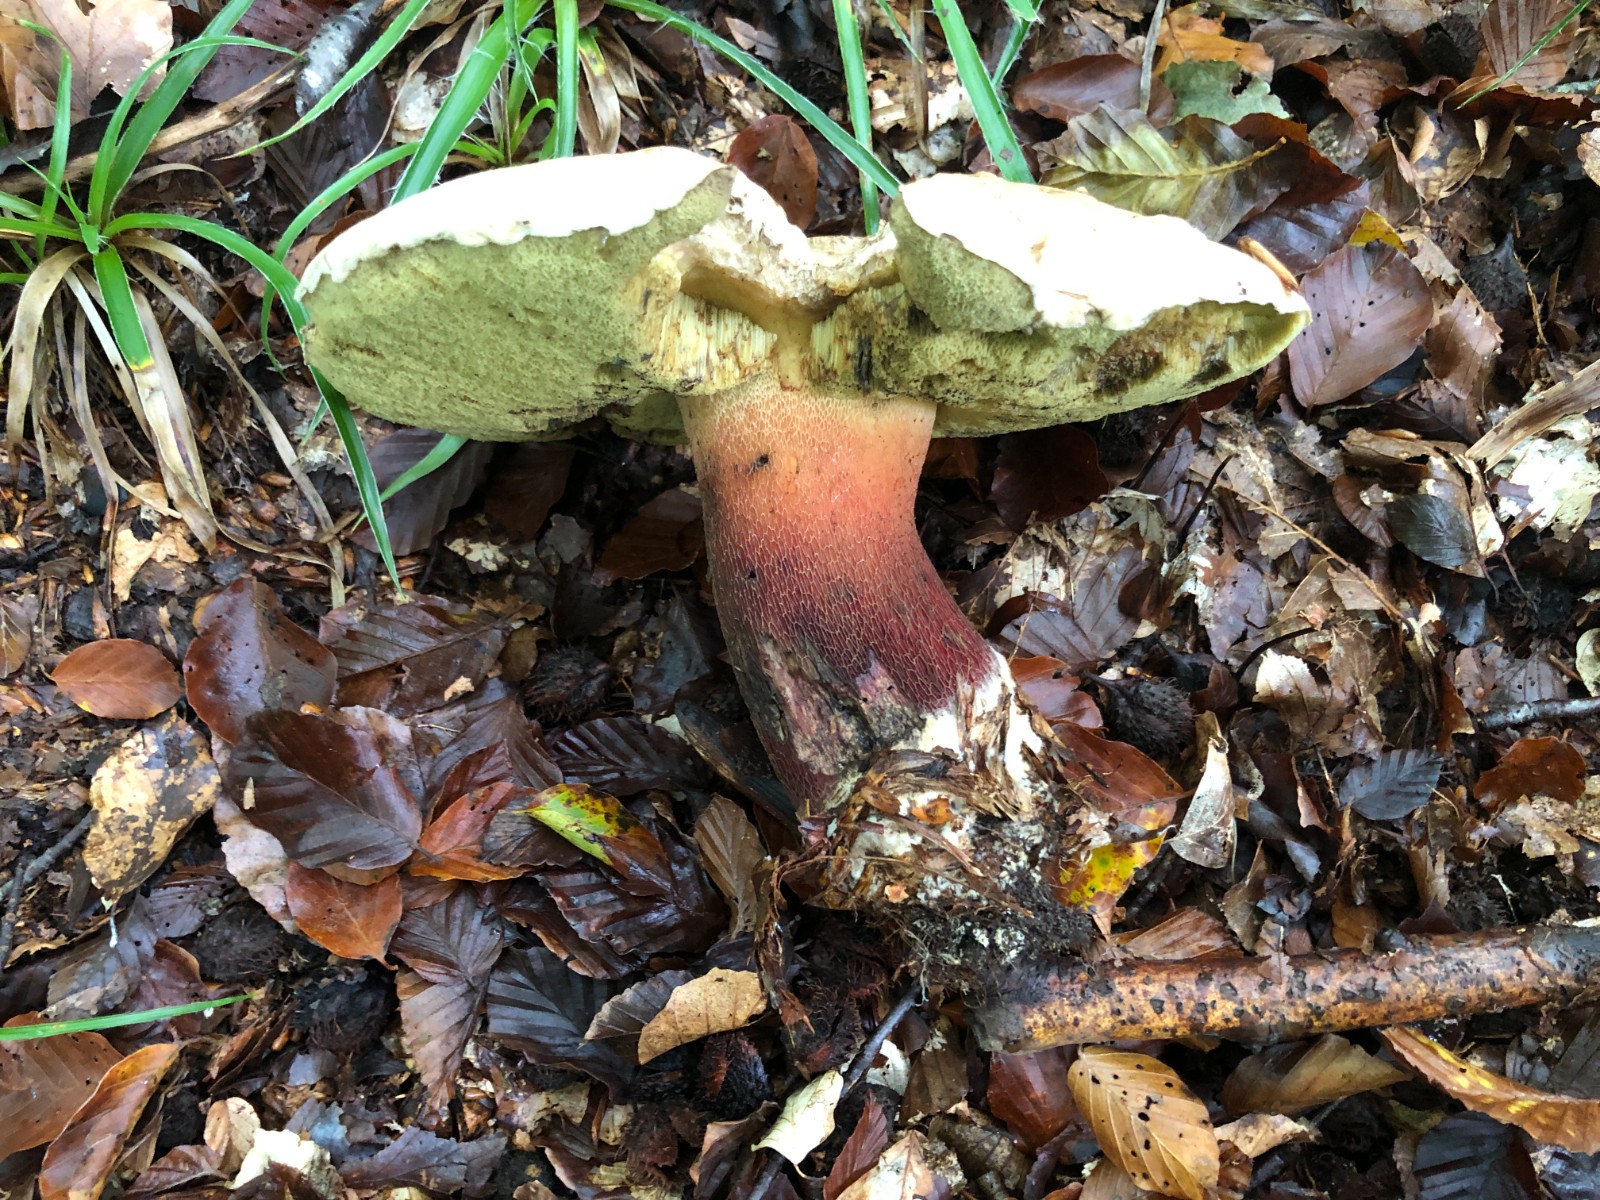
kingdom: Fungi
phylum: Basidiomycota
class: Agaricomycetes
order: Boletales
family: Boletaceae
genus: Caloboletus
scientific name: Caloboletus calopus
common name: skønfodet rørhat
